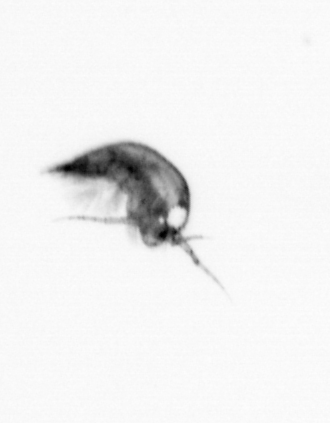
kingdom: Animalia
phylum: Arthropoda
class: Copepoda
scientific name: Copepoda
